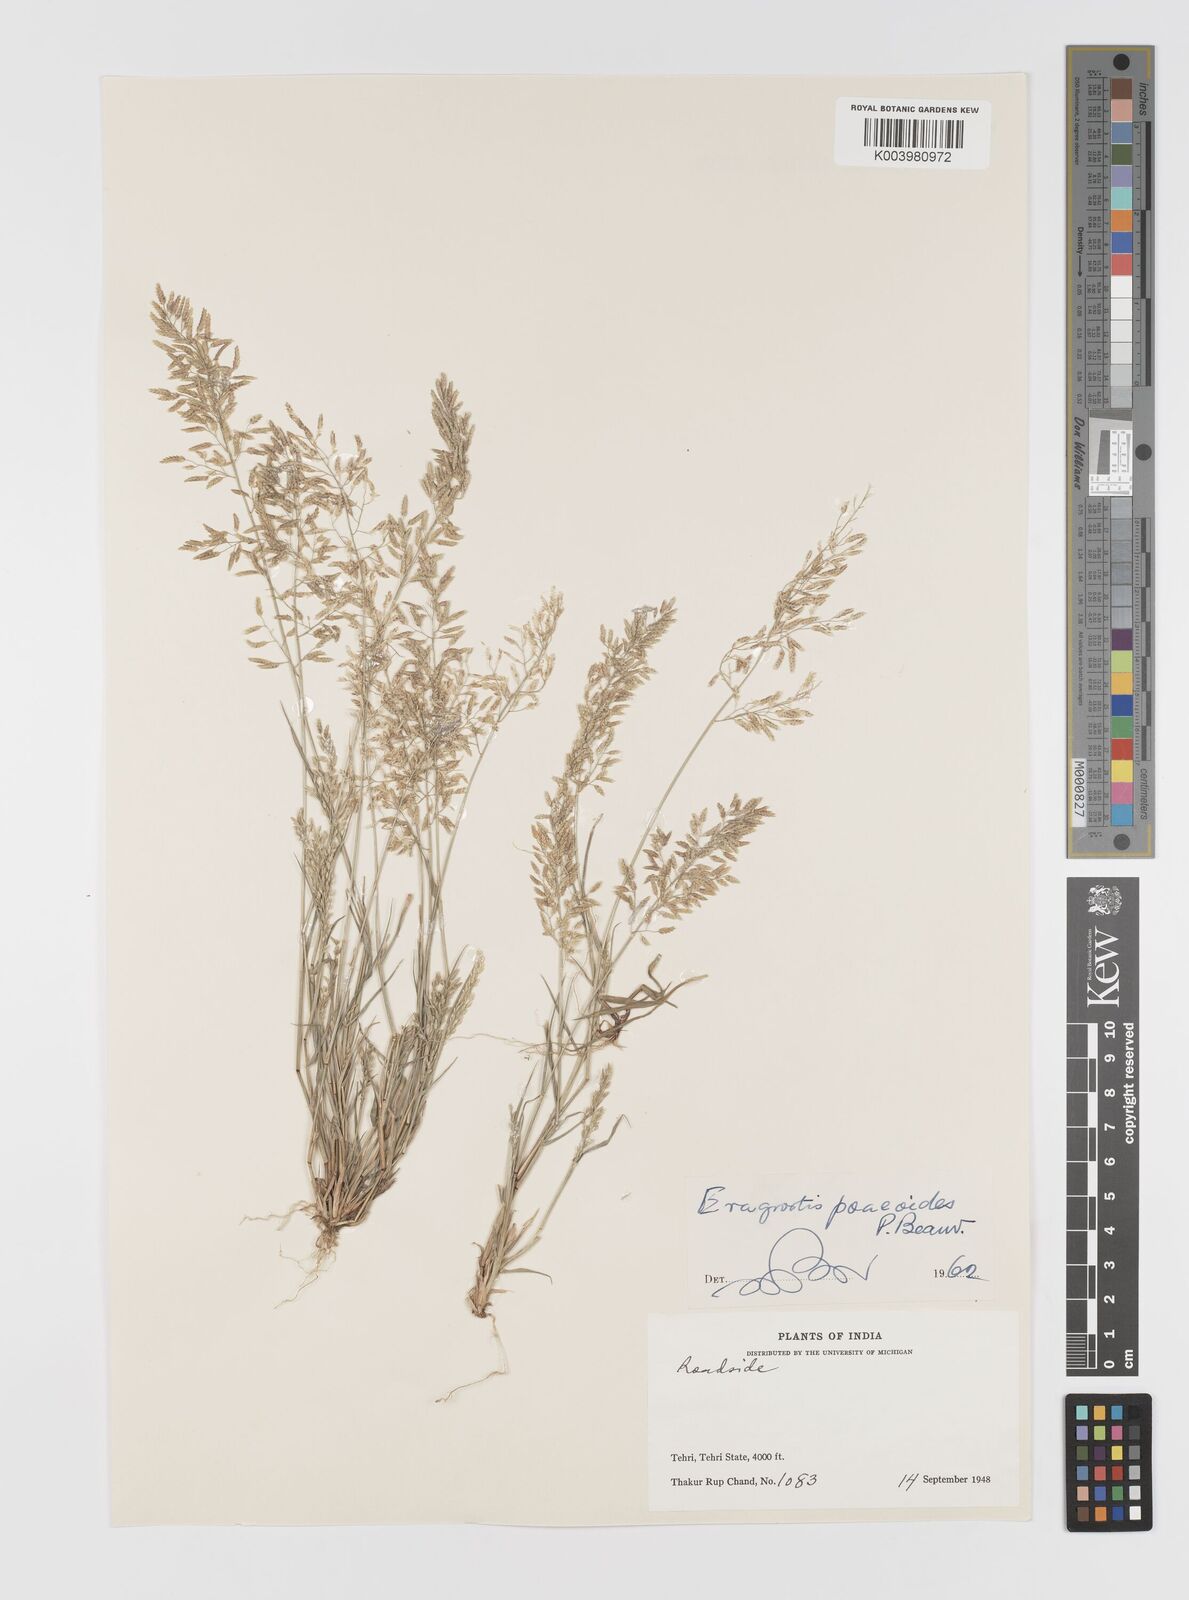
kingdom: Plantae
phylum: Tracheophyta
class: Liliopsida
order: Poales
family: Poaceae
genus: Eragrostis
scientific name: Eragrostis minor
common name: Small love-grass
